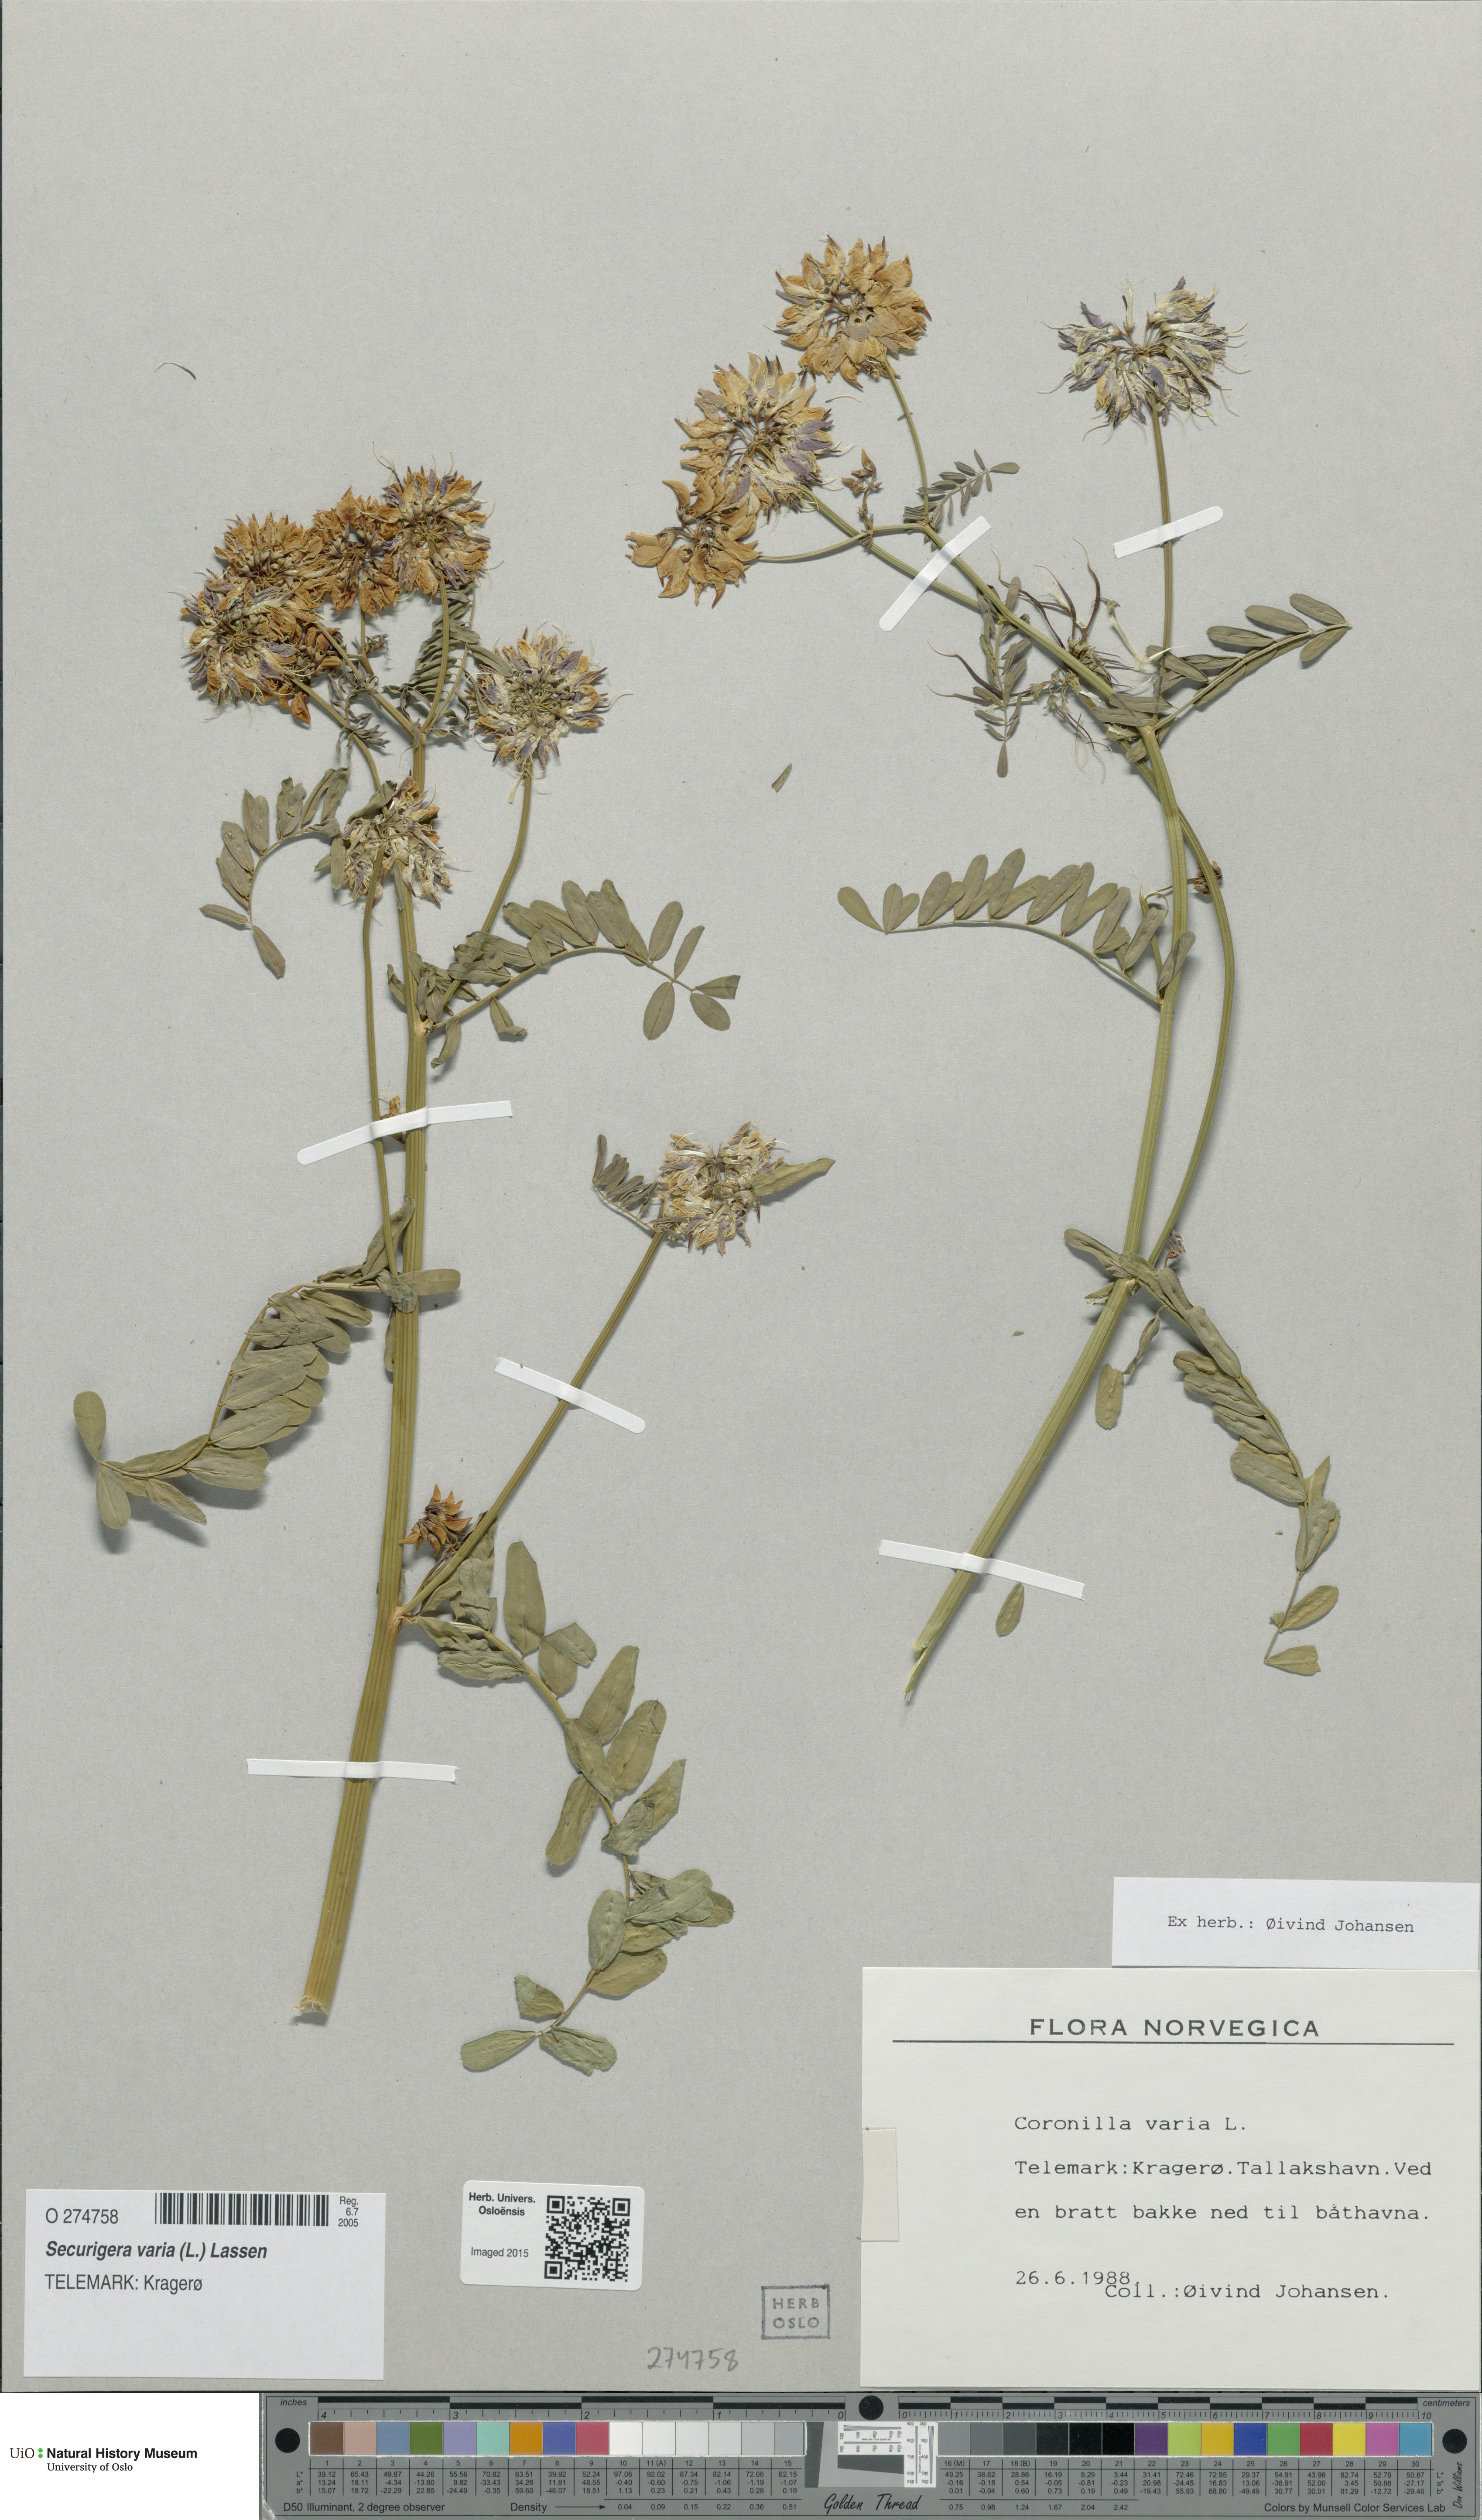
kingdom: Plantae
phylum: Tracheophyta
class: Magnoliopsida
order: Fabales
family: Fabaceae
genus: Coronilla
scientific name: Coronilla varia
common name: Crownvetch
